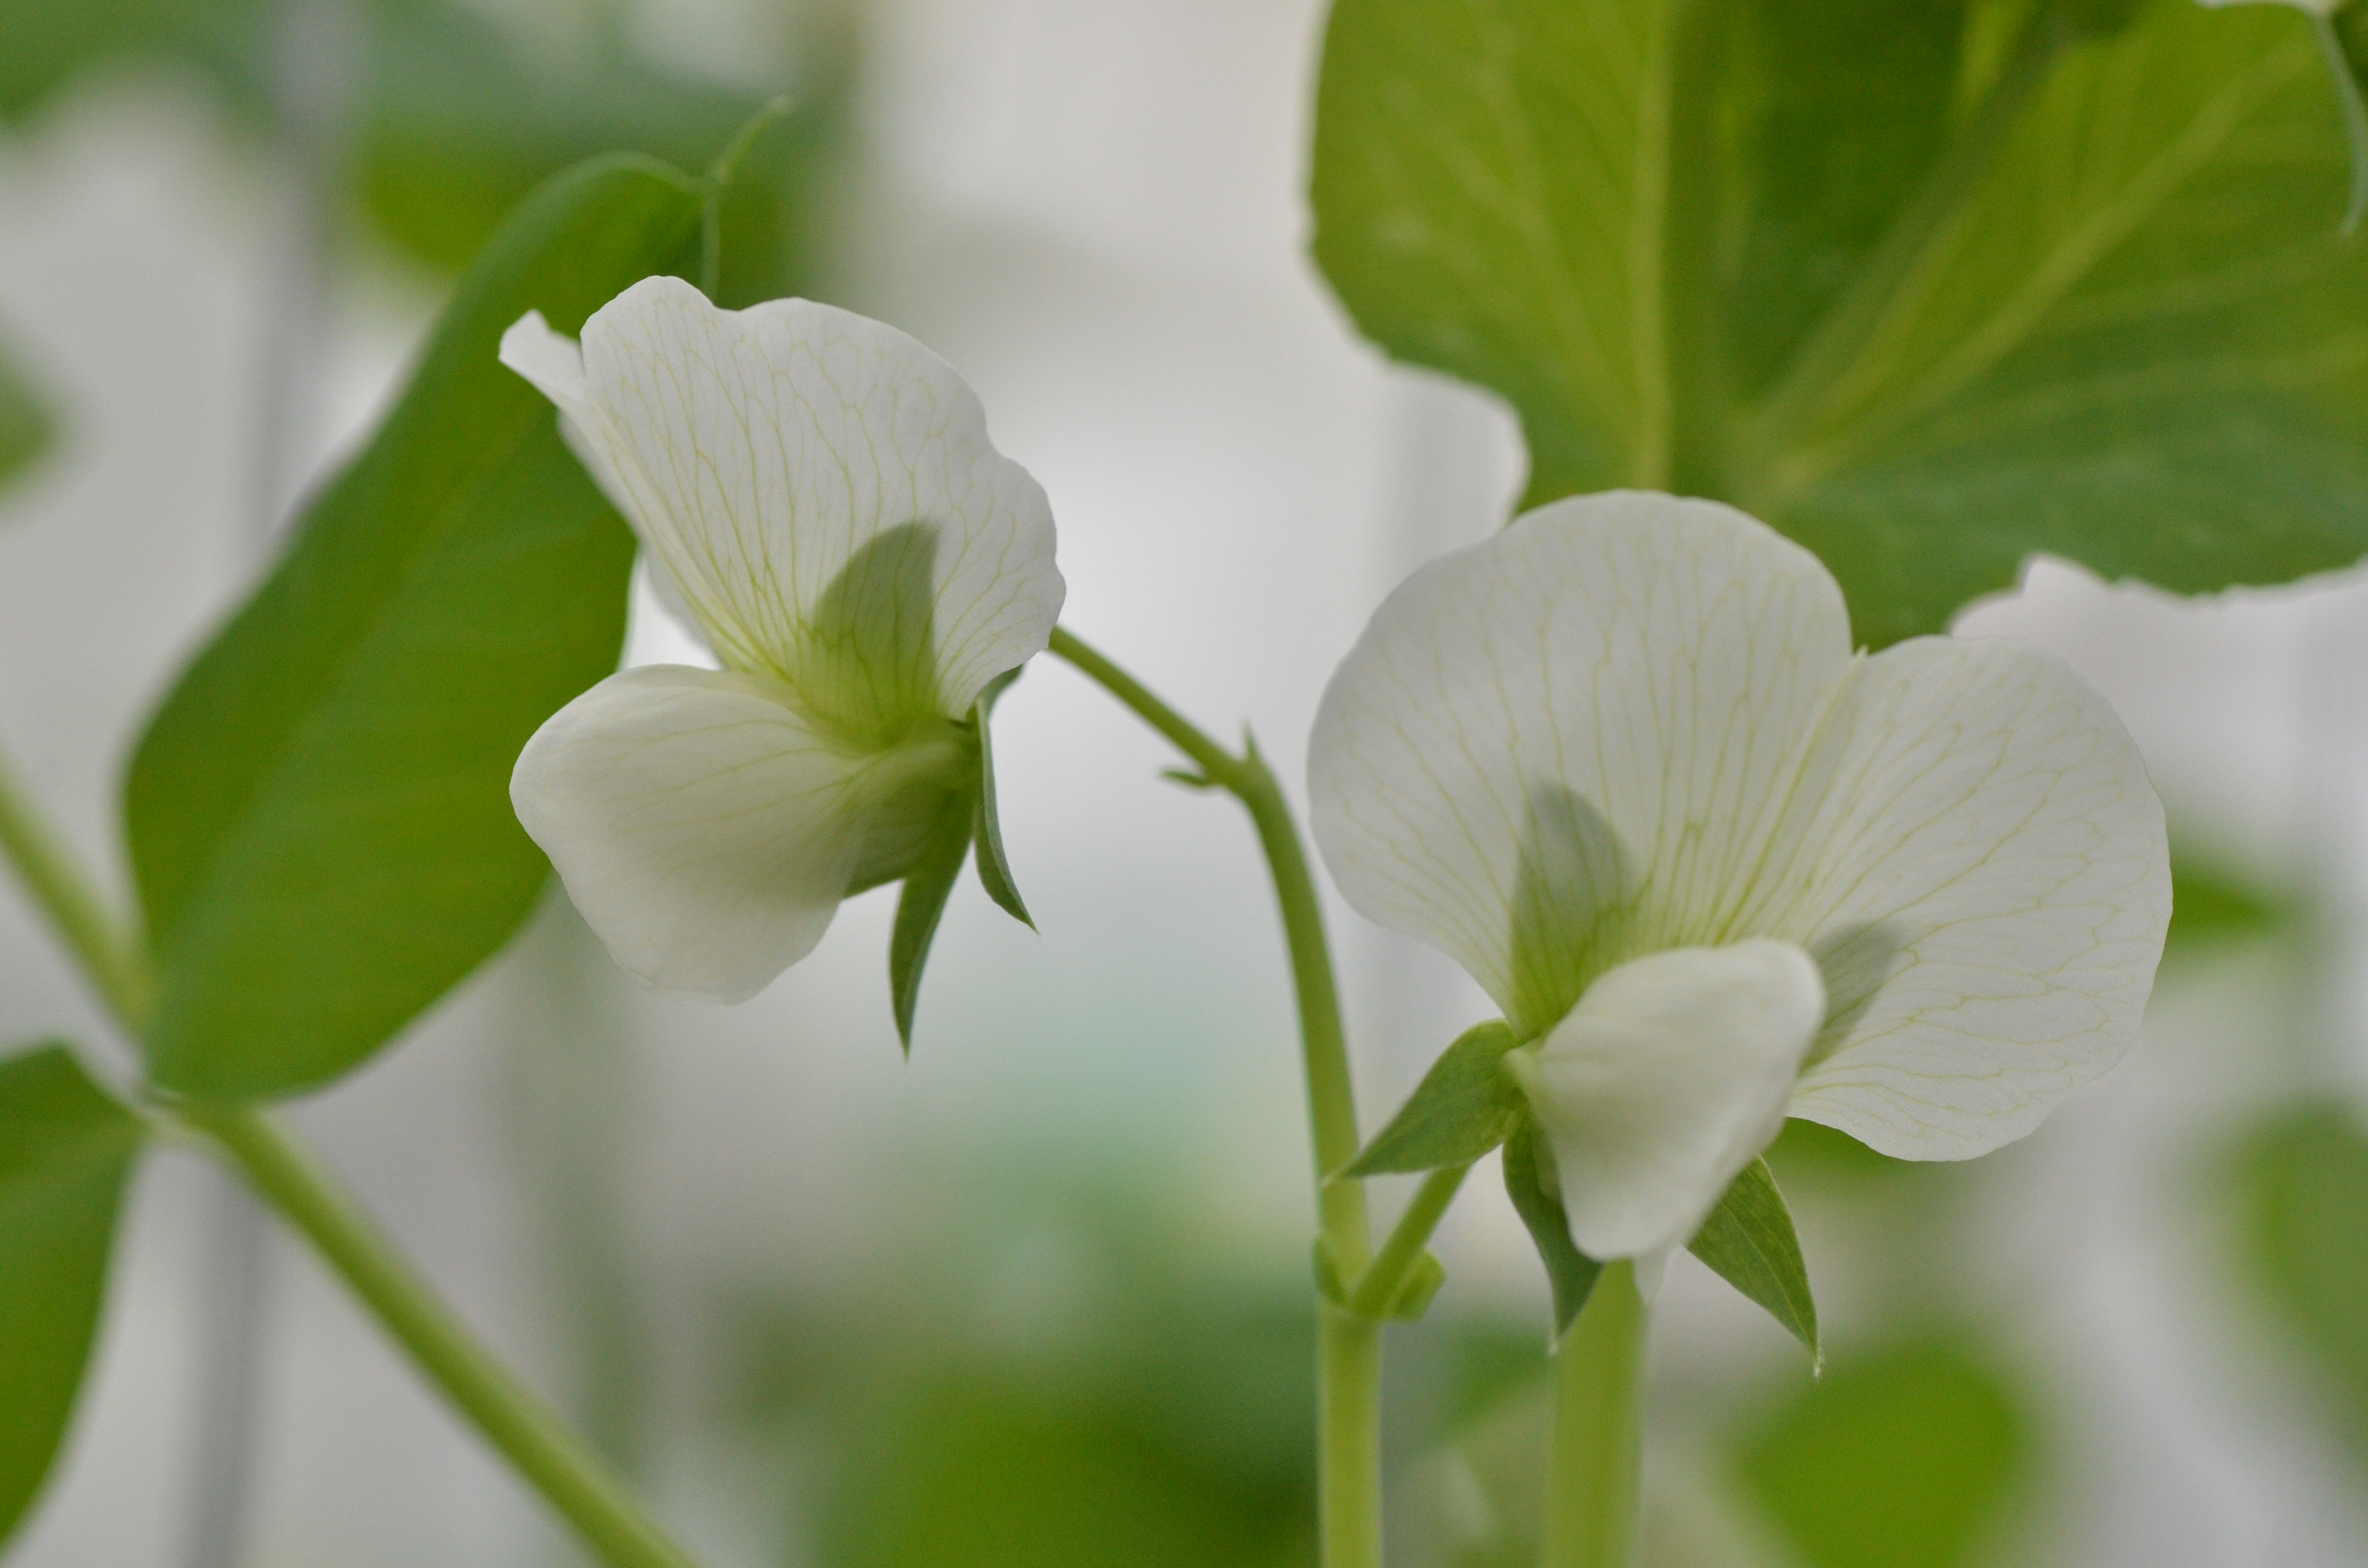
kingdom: Plantae
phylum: Tracheophyta
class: Magnoliopsida
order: Fabales
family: Fabaceae
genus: Lathyrus
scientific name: Lathyrus oleraceus
